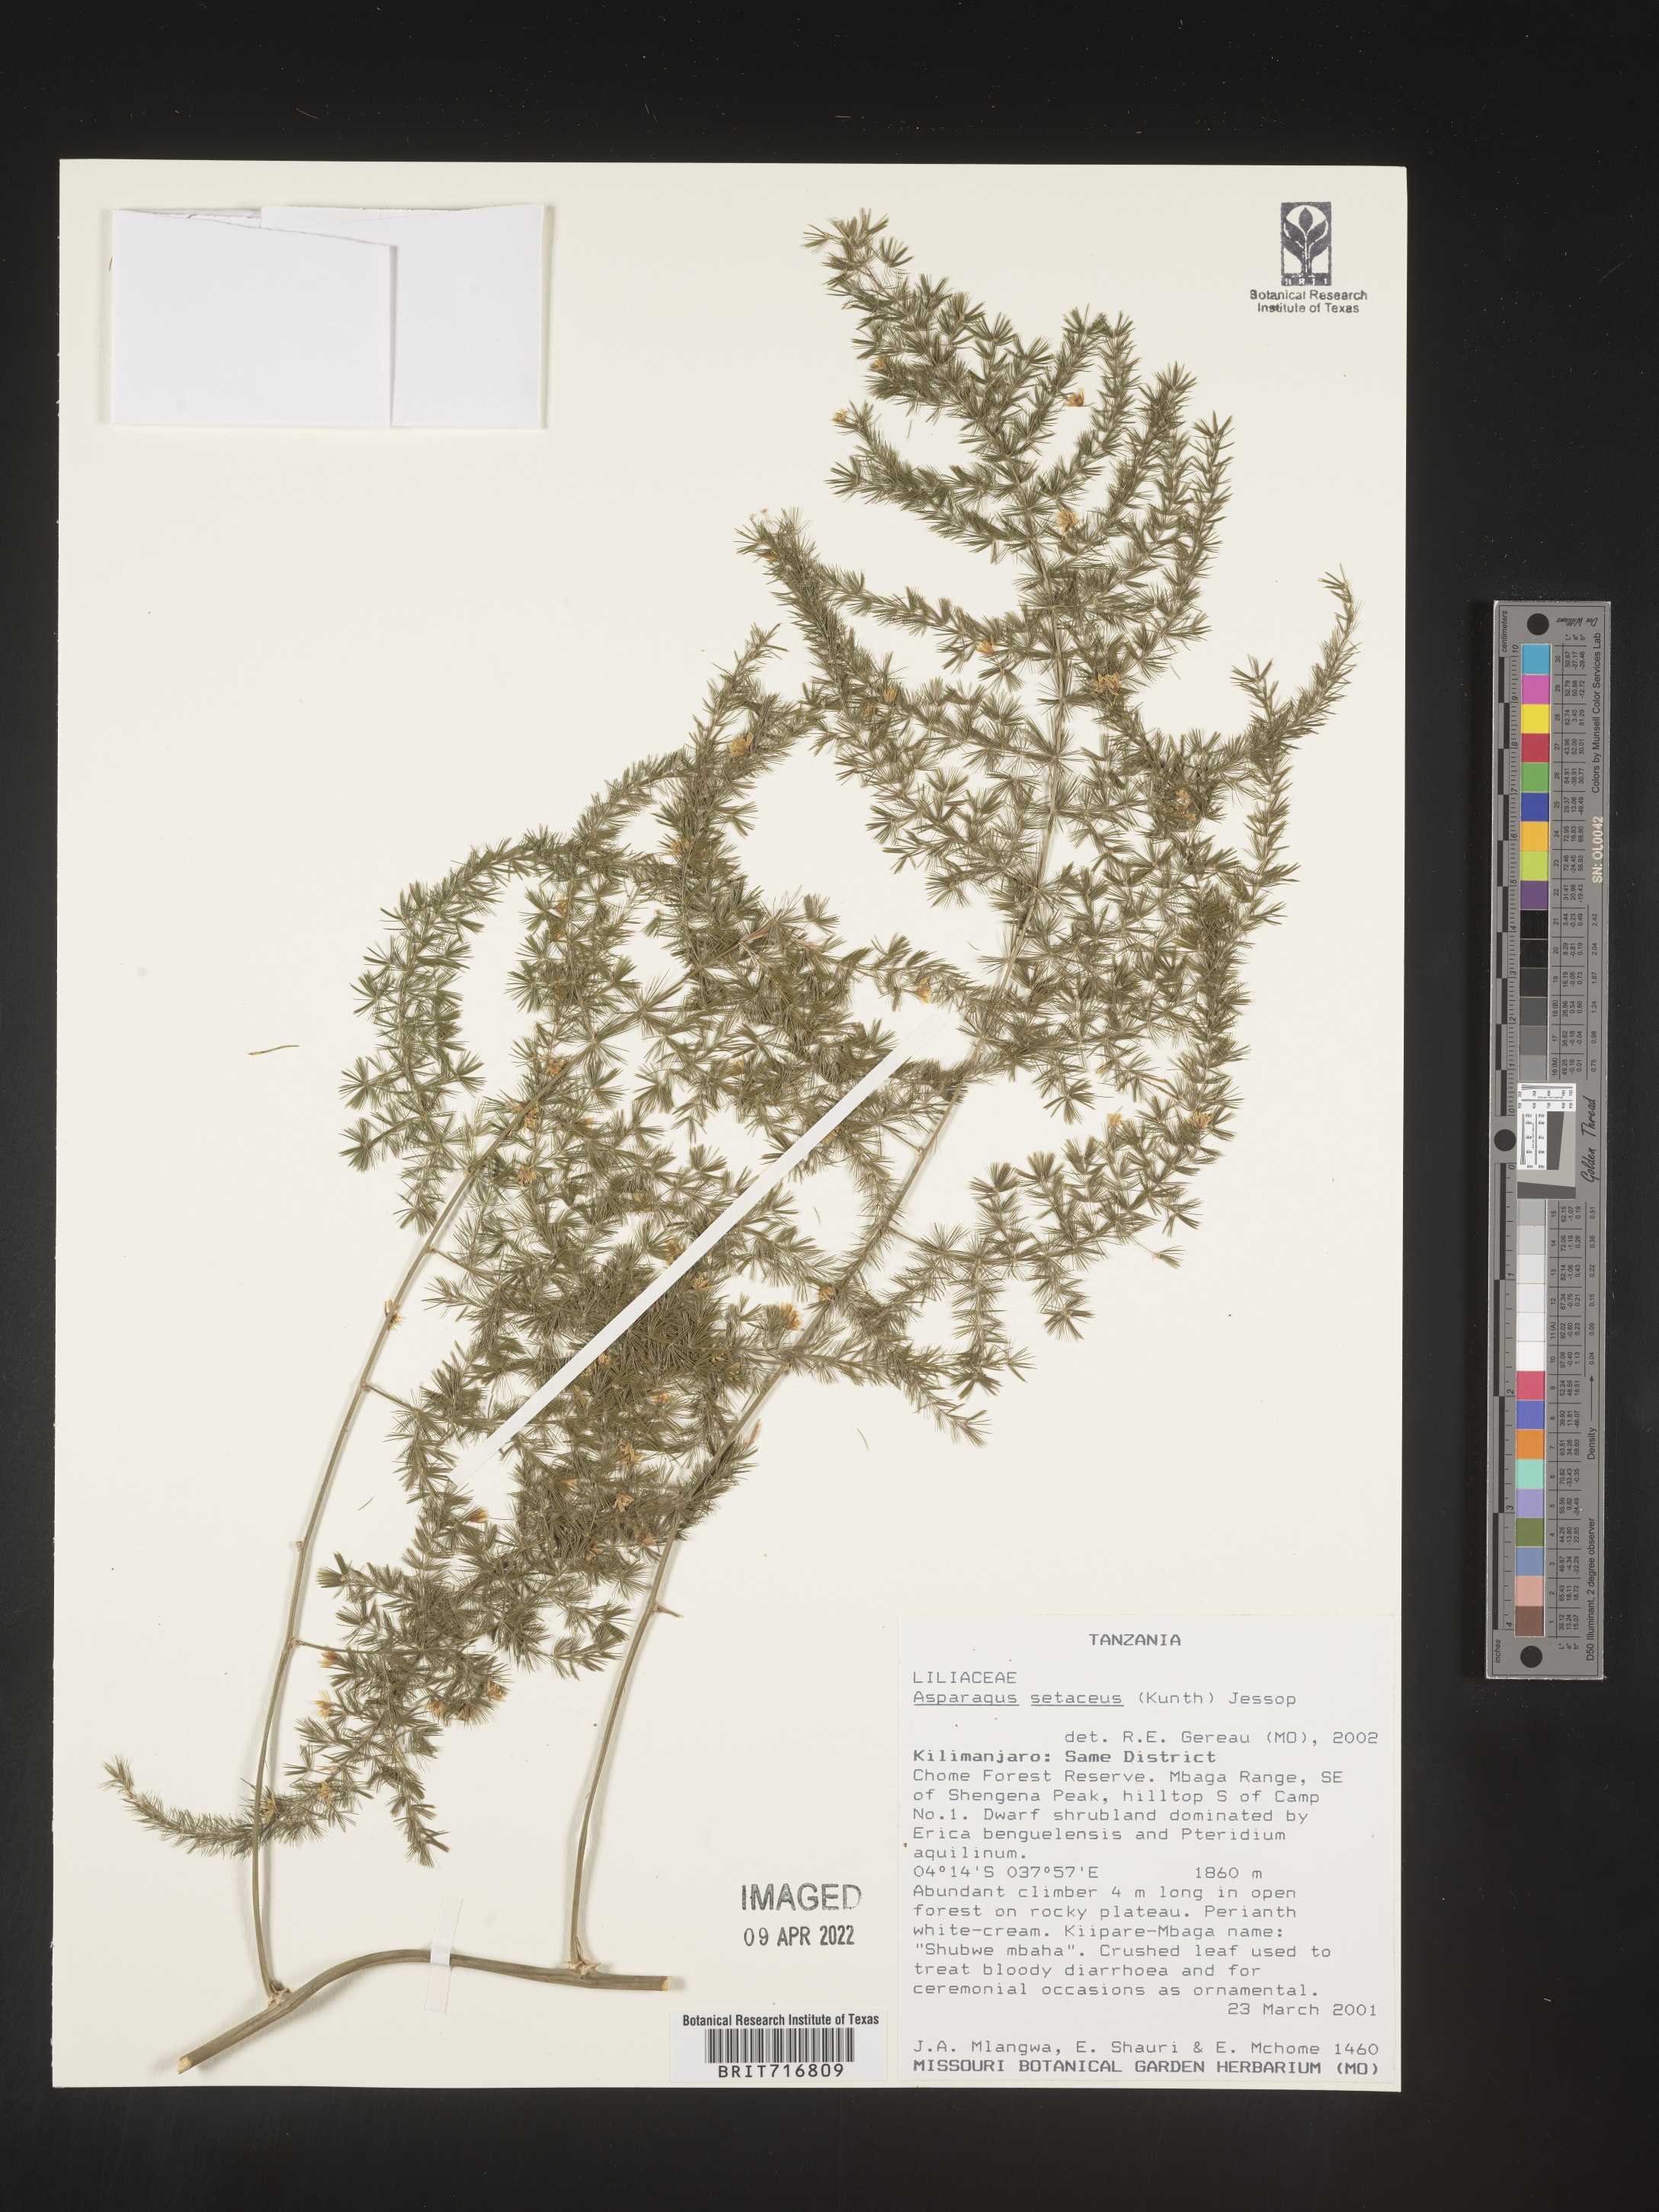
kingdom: Plantae
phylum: Tracheophyta
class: Liliopsida
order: Asparagales
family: Asparagaceae
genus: Asparagus
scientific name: Asparagus
